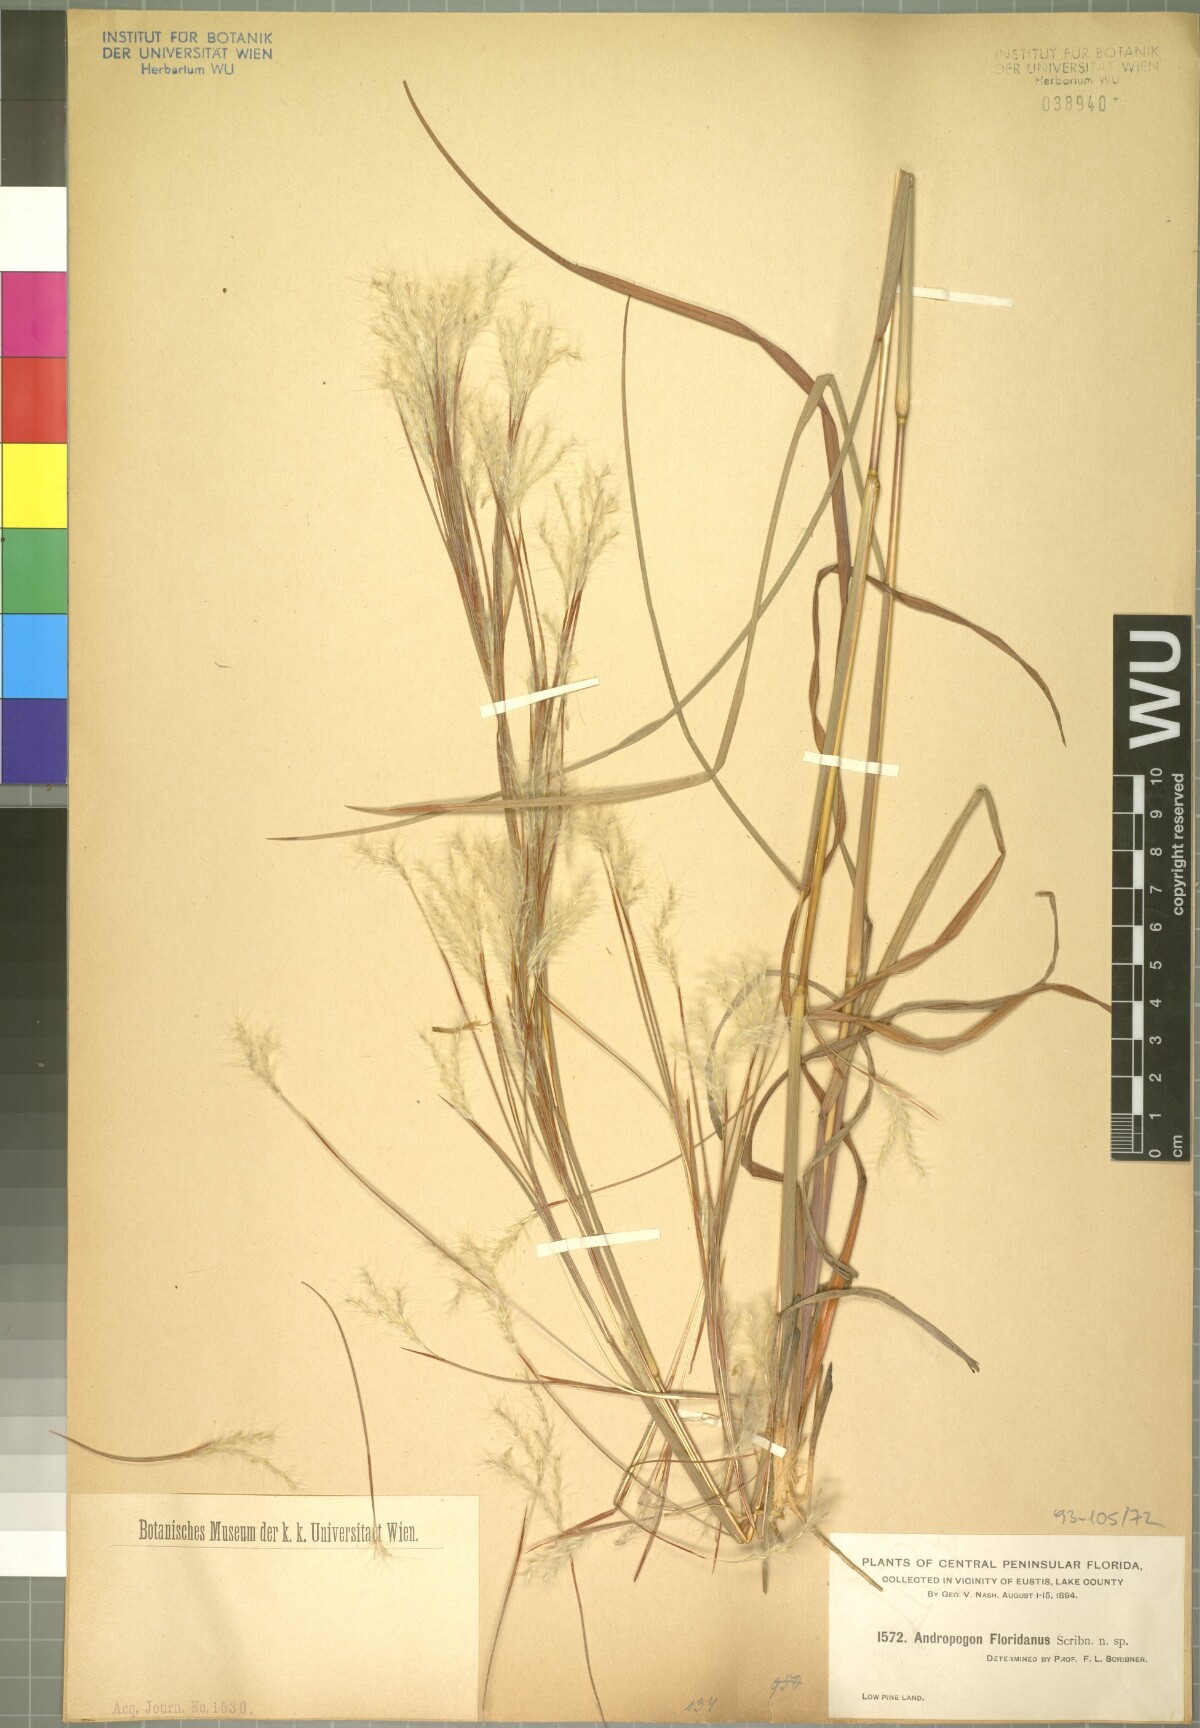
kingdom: Plantae
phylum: Tracheophyta
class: Liliopsida
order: Poales
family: Poaceae
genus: Andropogon
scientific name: Andropogon floridanus
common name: Florida bluestem
